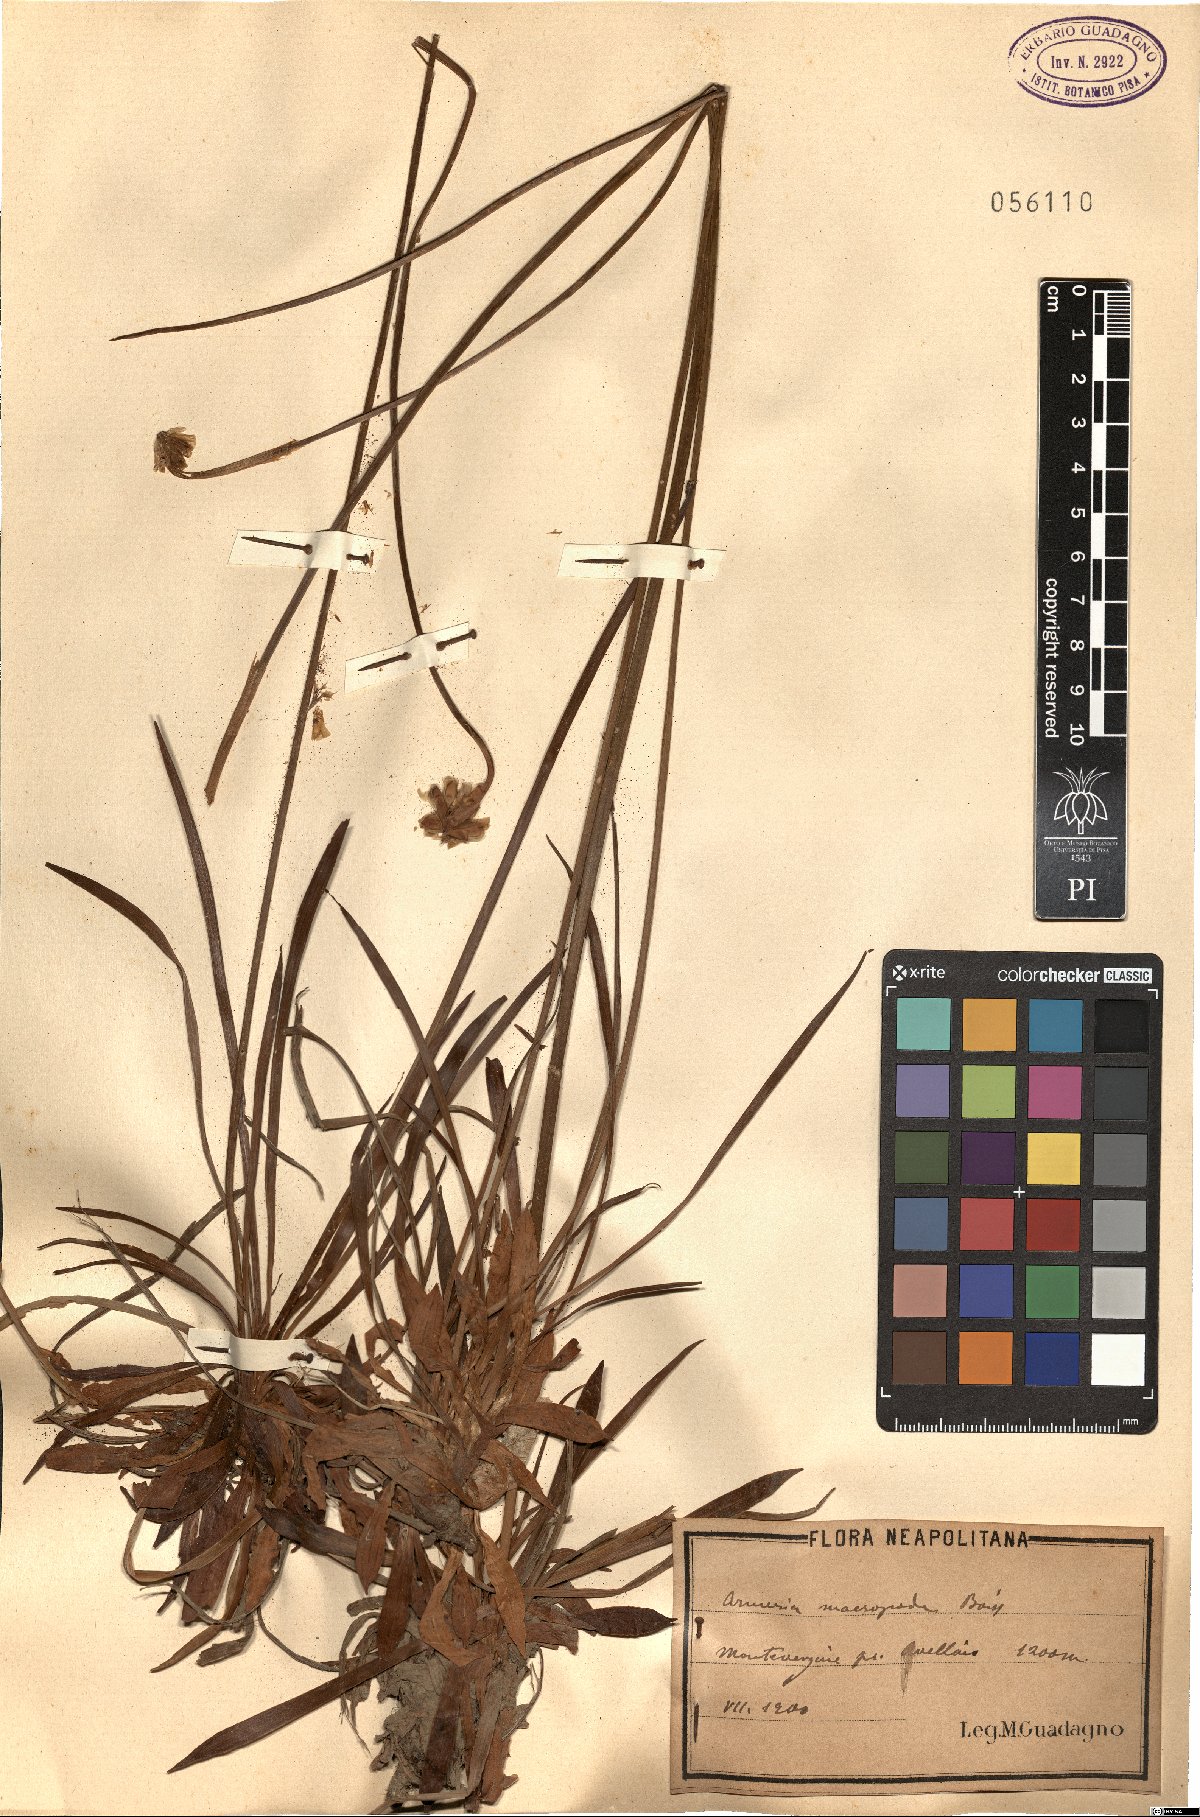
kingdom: Plantae
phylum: Tracheophyta
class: Magnoliopsida
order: Caryophyllales
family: Plumbaginaceae
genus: Armeria
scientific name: Armeria macropoda
